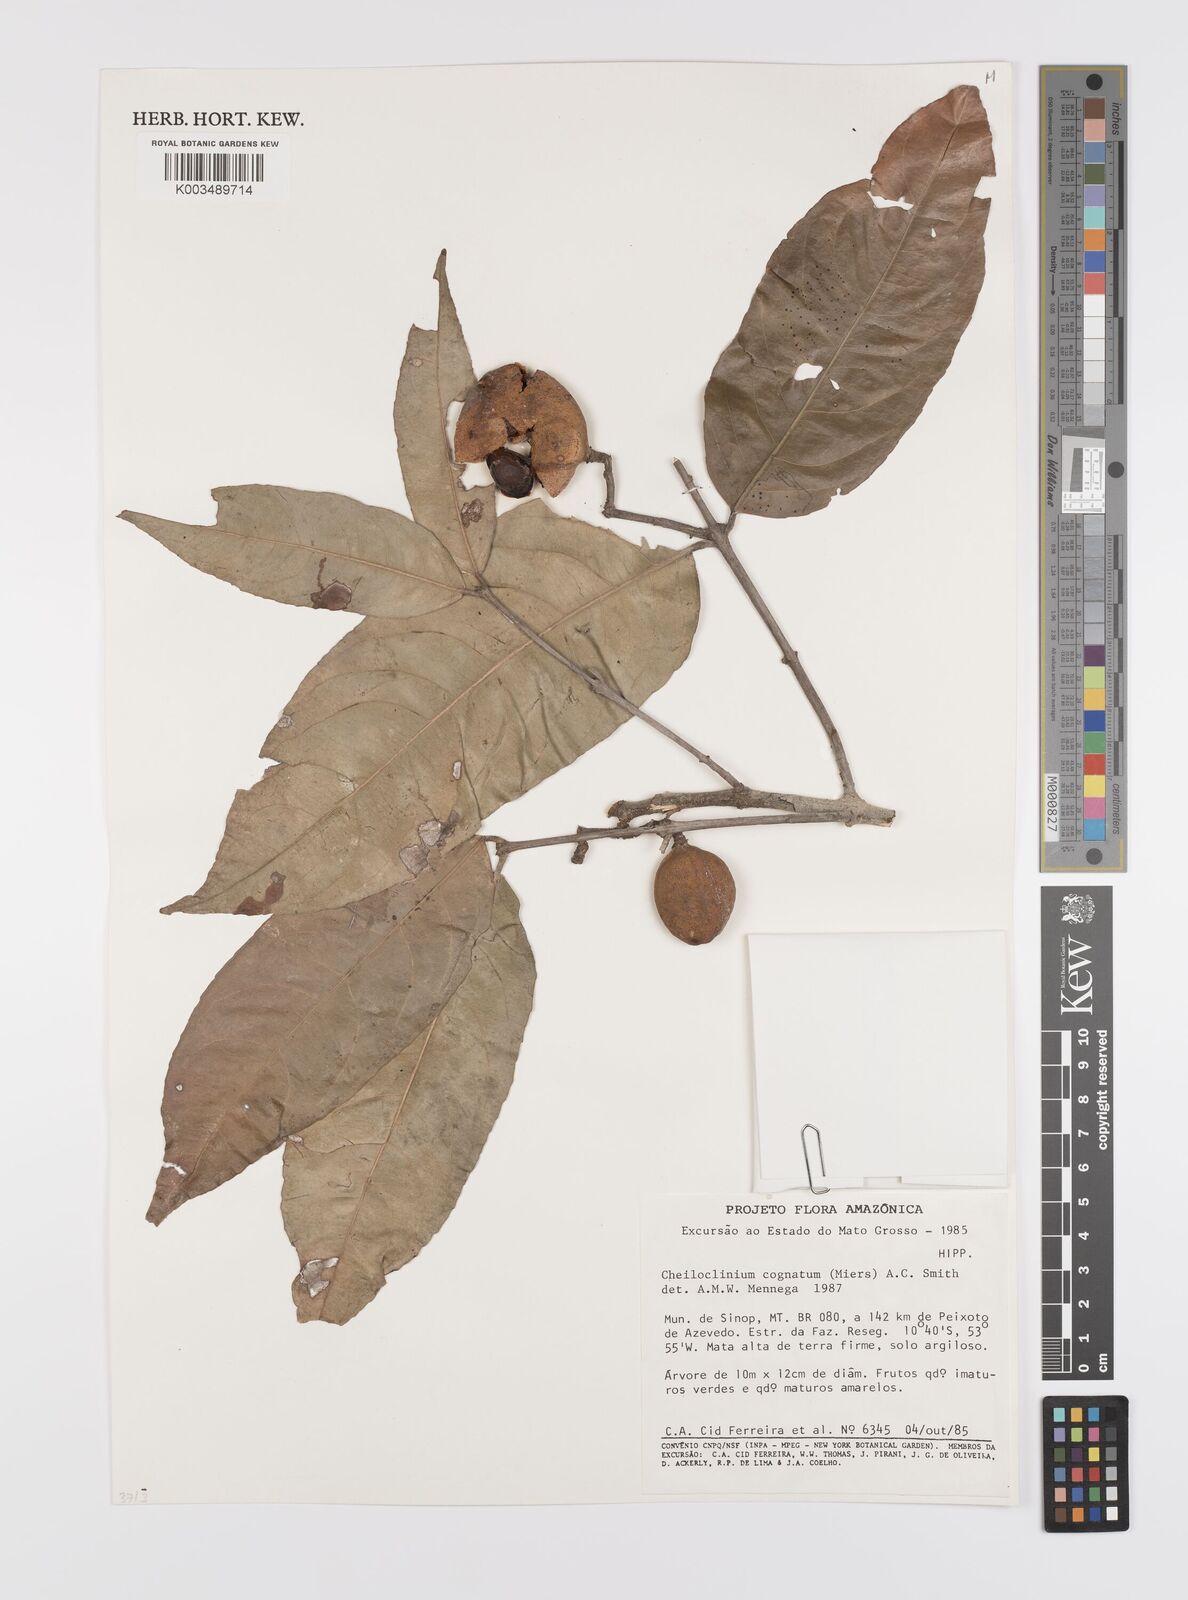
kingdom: Plantae
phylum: Tracheophyta
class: Magnoliopsida
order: Celastrales
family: Celastraceae
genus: Cheiloclinium
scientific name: Cheiloclinium cognatum
